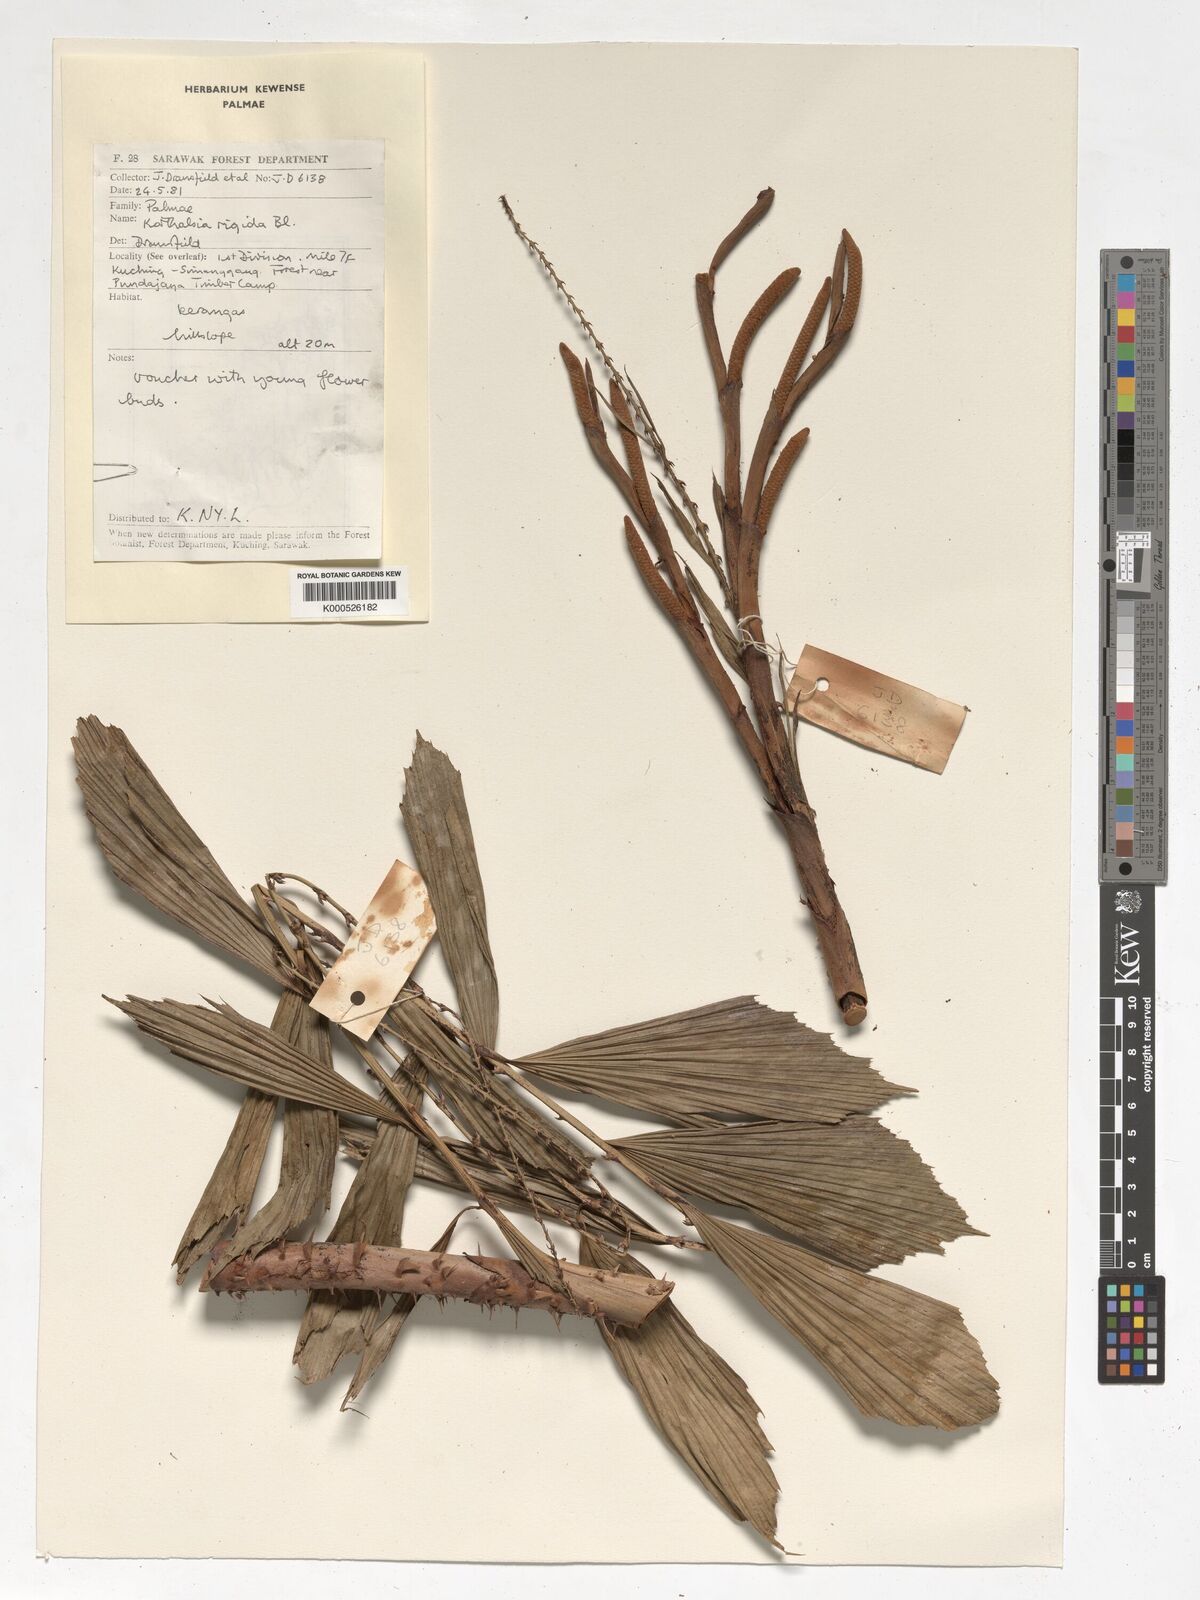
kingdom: Plantae
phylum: Tracheophyta
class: Liliopsida
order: Arecales
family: Arecaceae
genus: Korthalsia
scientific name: Korthalsia rigida
